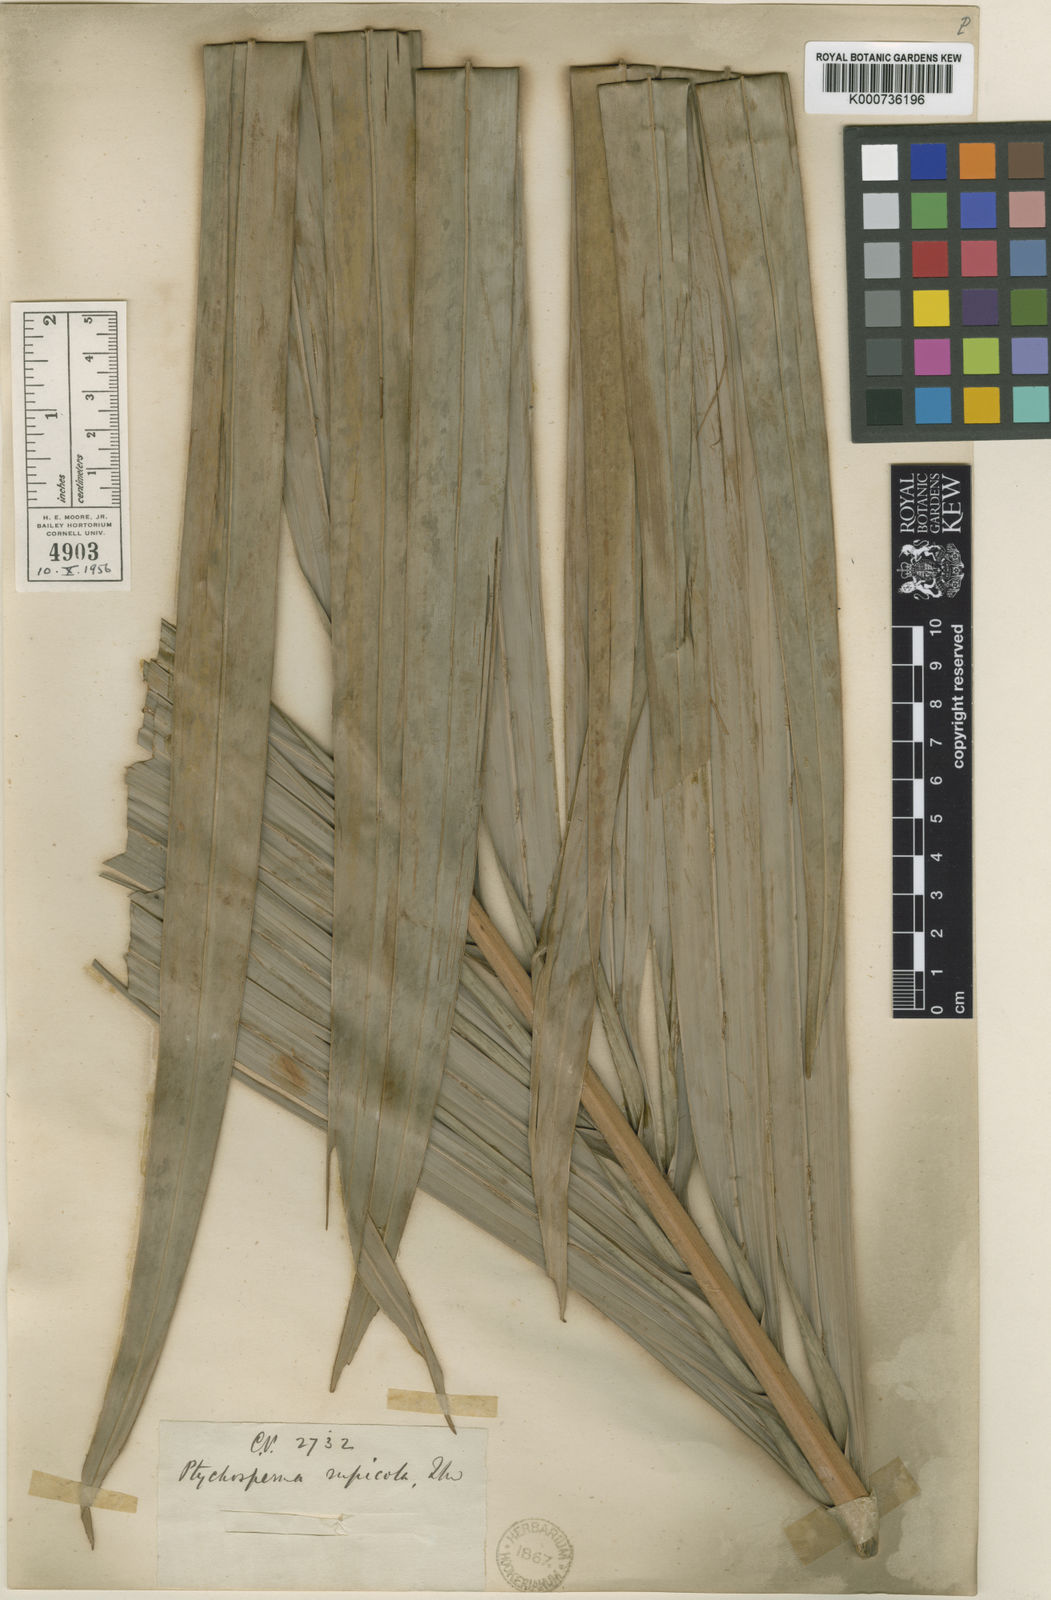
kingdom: Plantae
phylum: Tracheophyta
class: Liliopsida
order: Arecales
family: Arecaceae
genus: Loxococcus
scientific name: Loxococcus rupicola
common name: Crook-fruit palm
